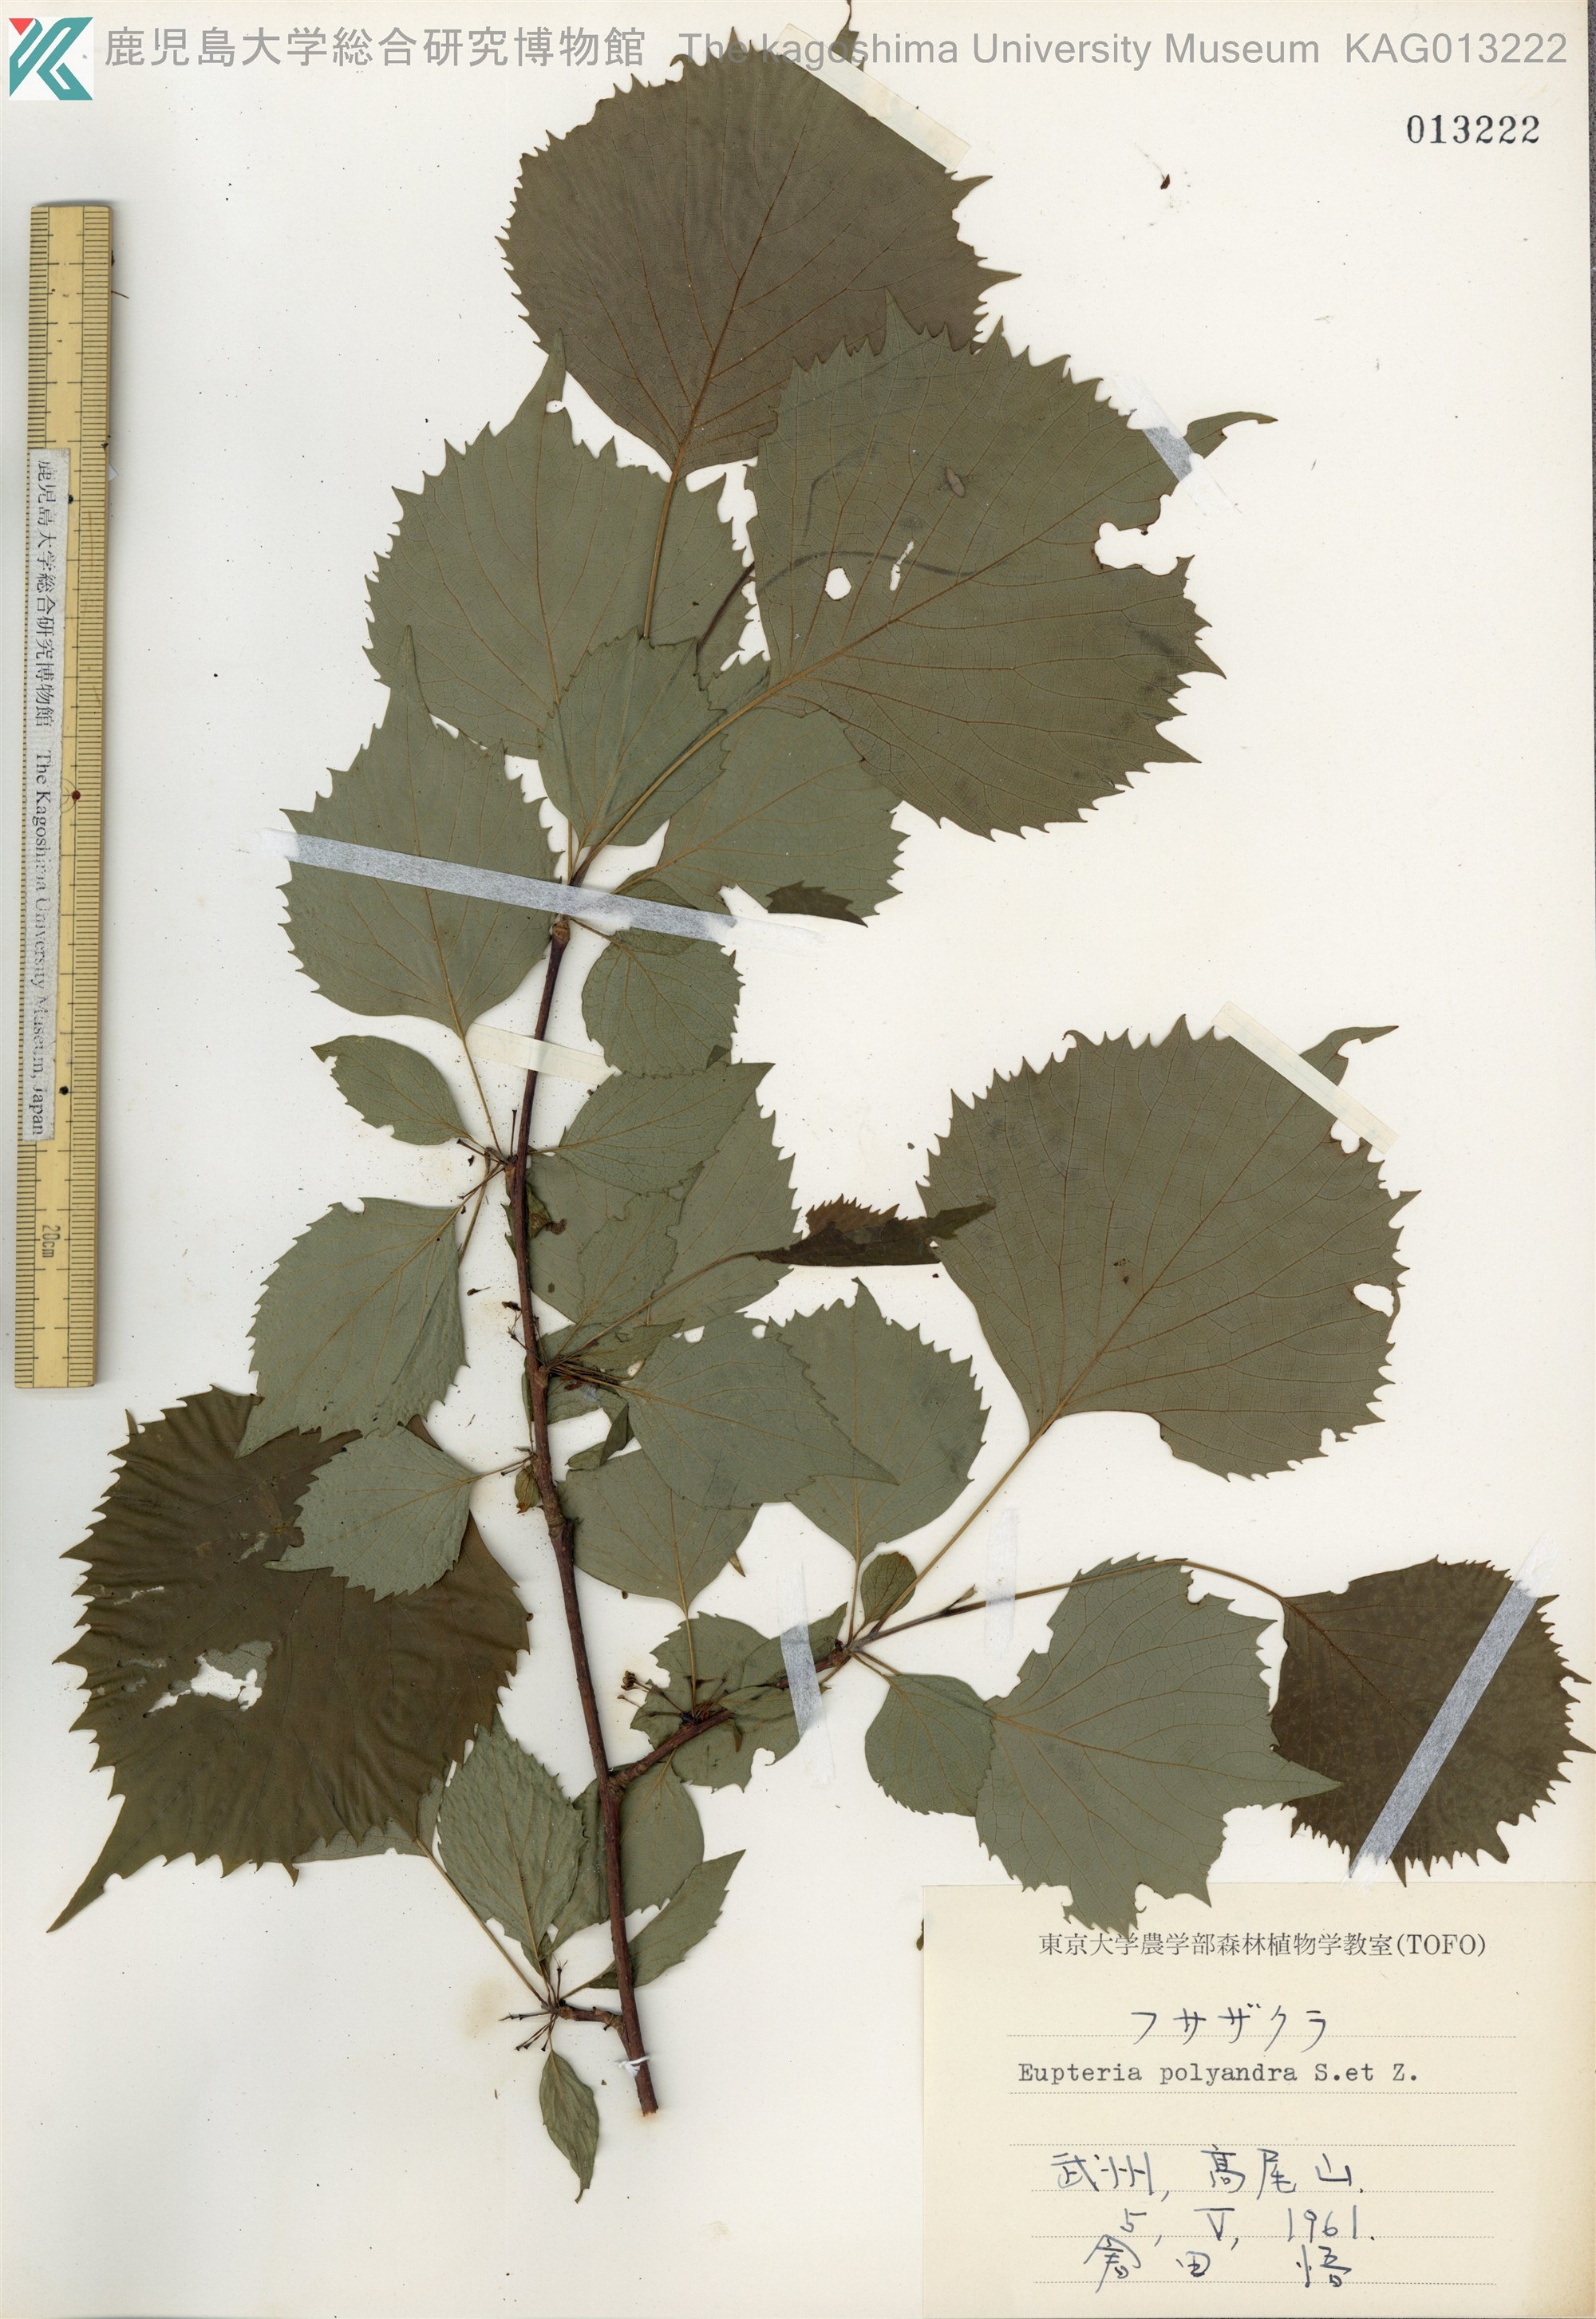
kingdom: Plantae
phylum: Tracheophyta
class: Magnoliopsida
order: Ranunculales
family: Eupteleaceae
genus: Euptelea
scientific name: Euptelea polyandra
